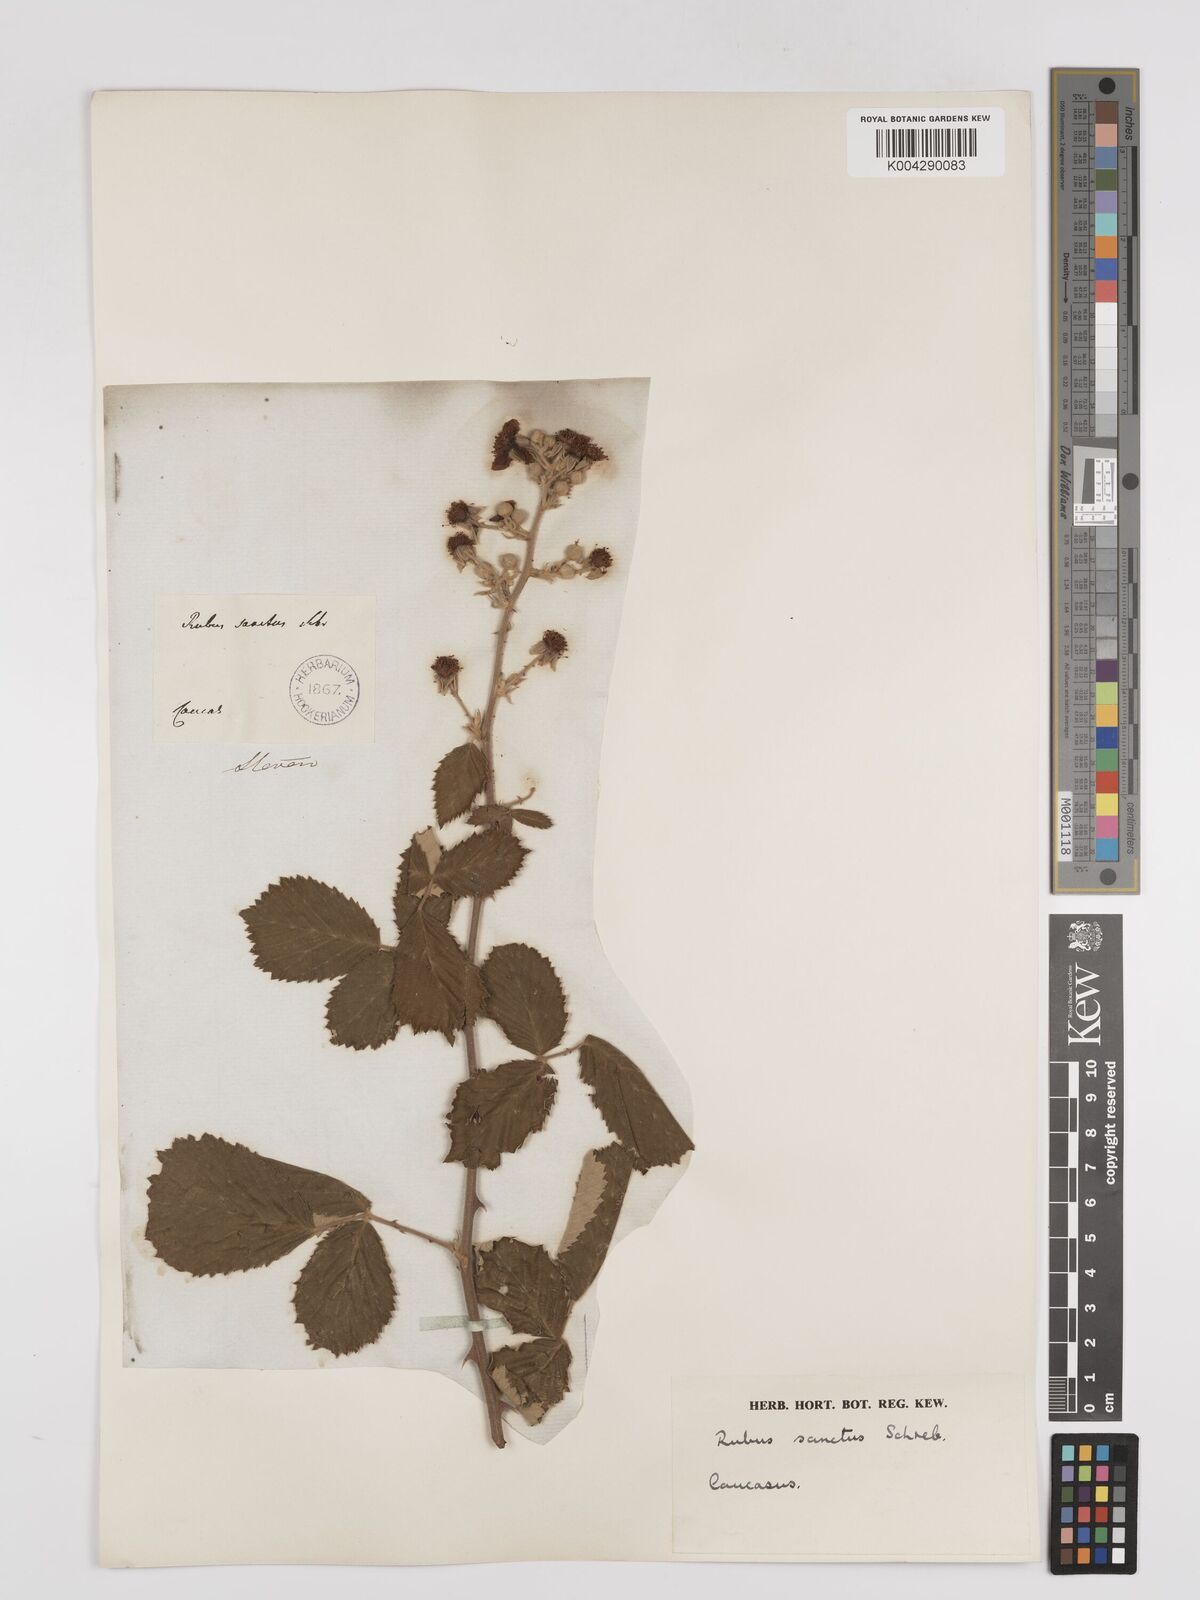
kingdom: Plantae
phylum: Tracheophyta
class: Magnoliopsida
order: Rosales
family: Rosaceae
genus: Rubus
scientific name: Rubus sanctus
